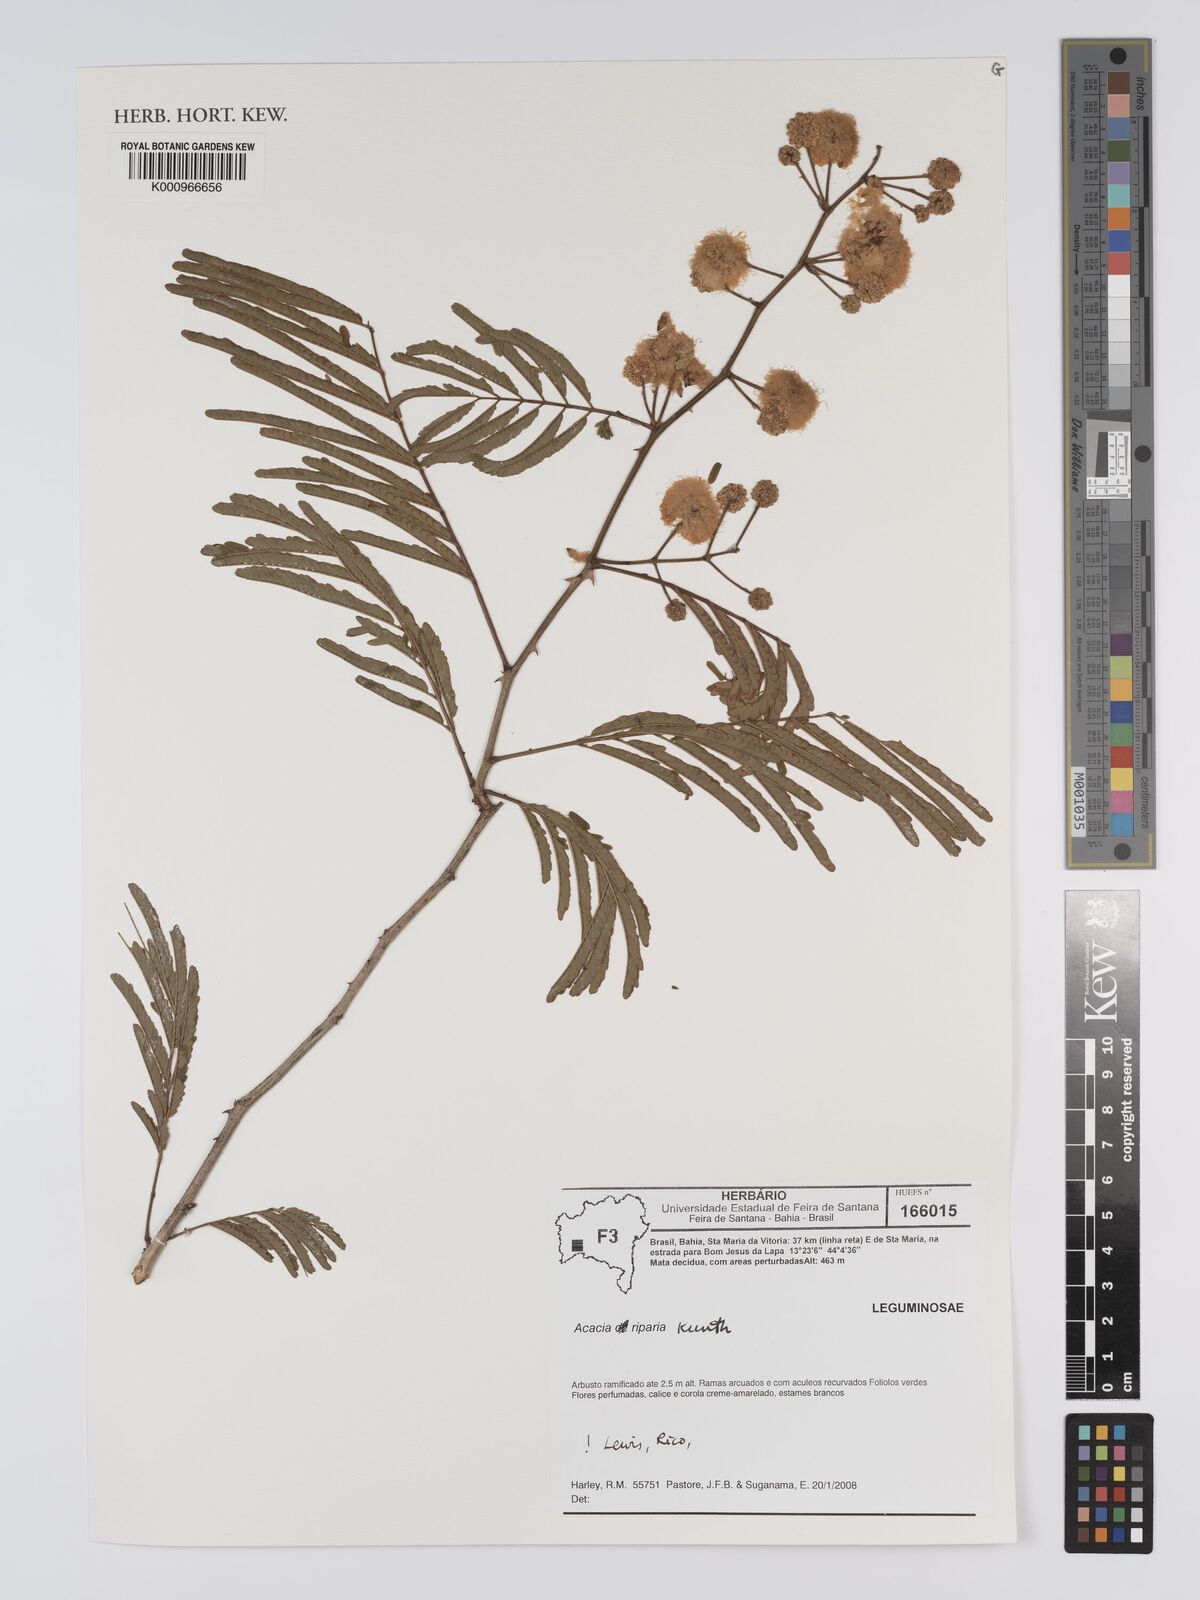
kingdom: Plantae
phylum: Tracheophyta
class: Magnoliopsida
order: Fabales
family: Fabaceae
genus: Senegalia
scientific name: Senegalia riparia
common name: Catch-and-keep
